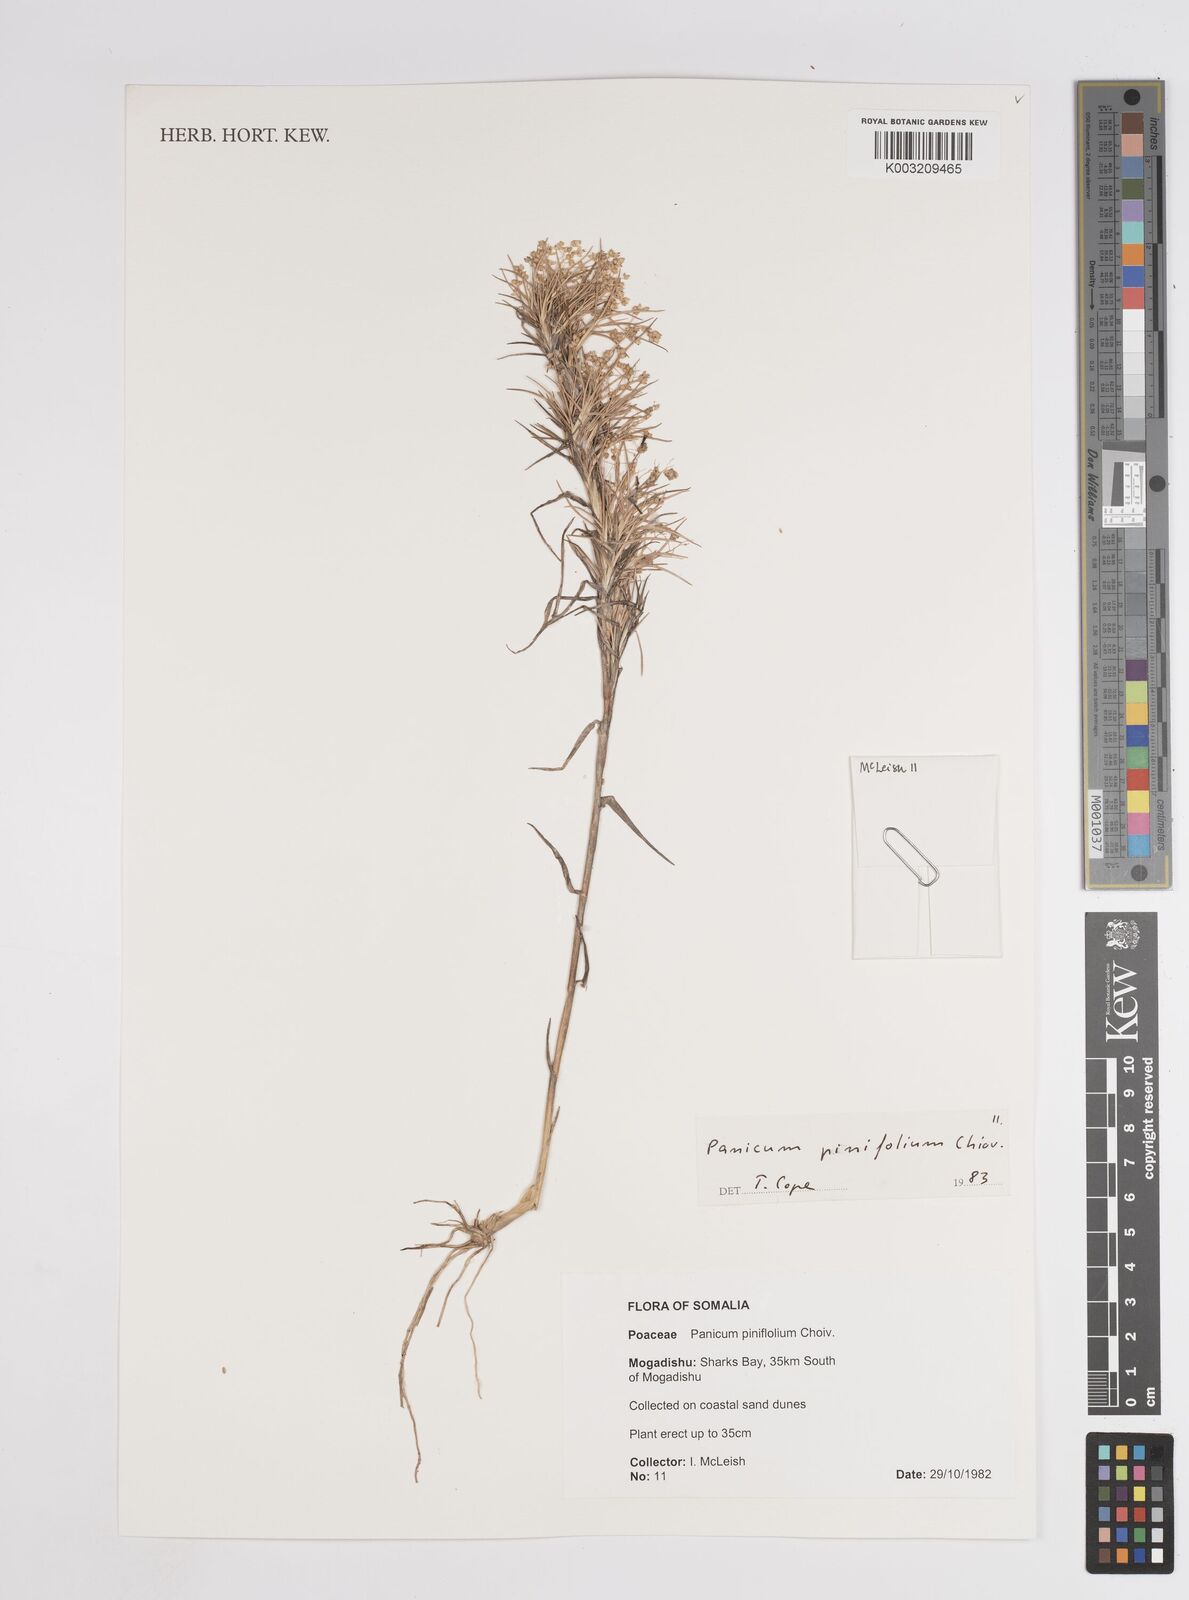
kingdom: Plantae
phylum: Tracheophyta
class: Liliopsida
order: Poales
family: Poaceae
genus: Panicum
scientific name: Panicum pinifolium
